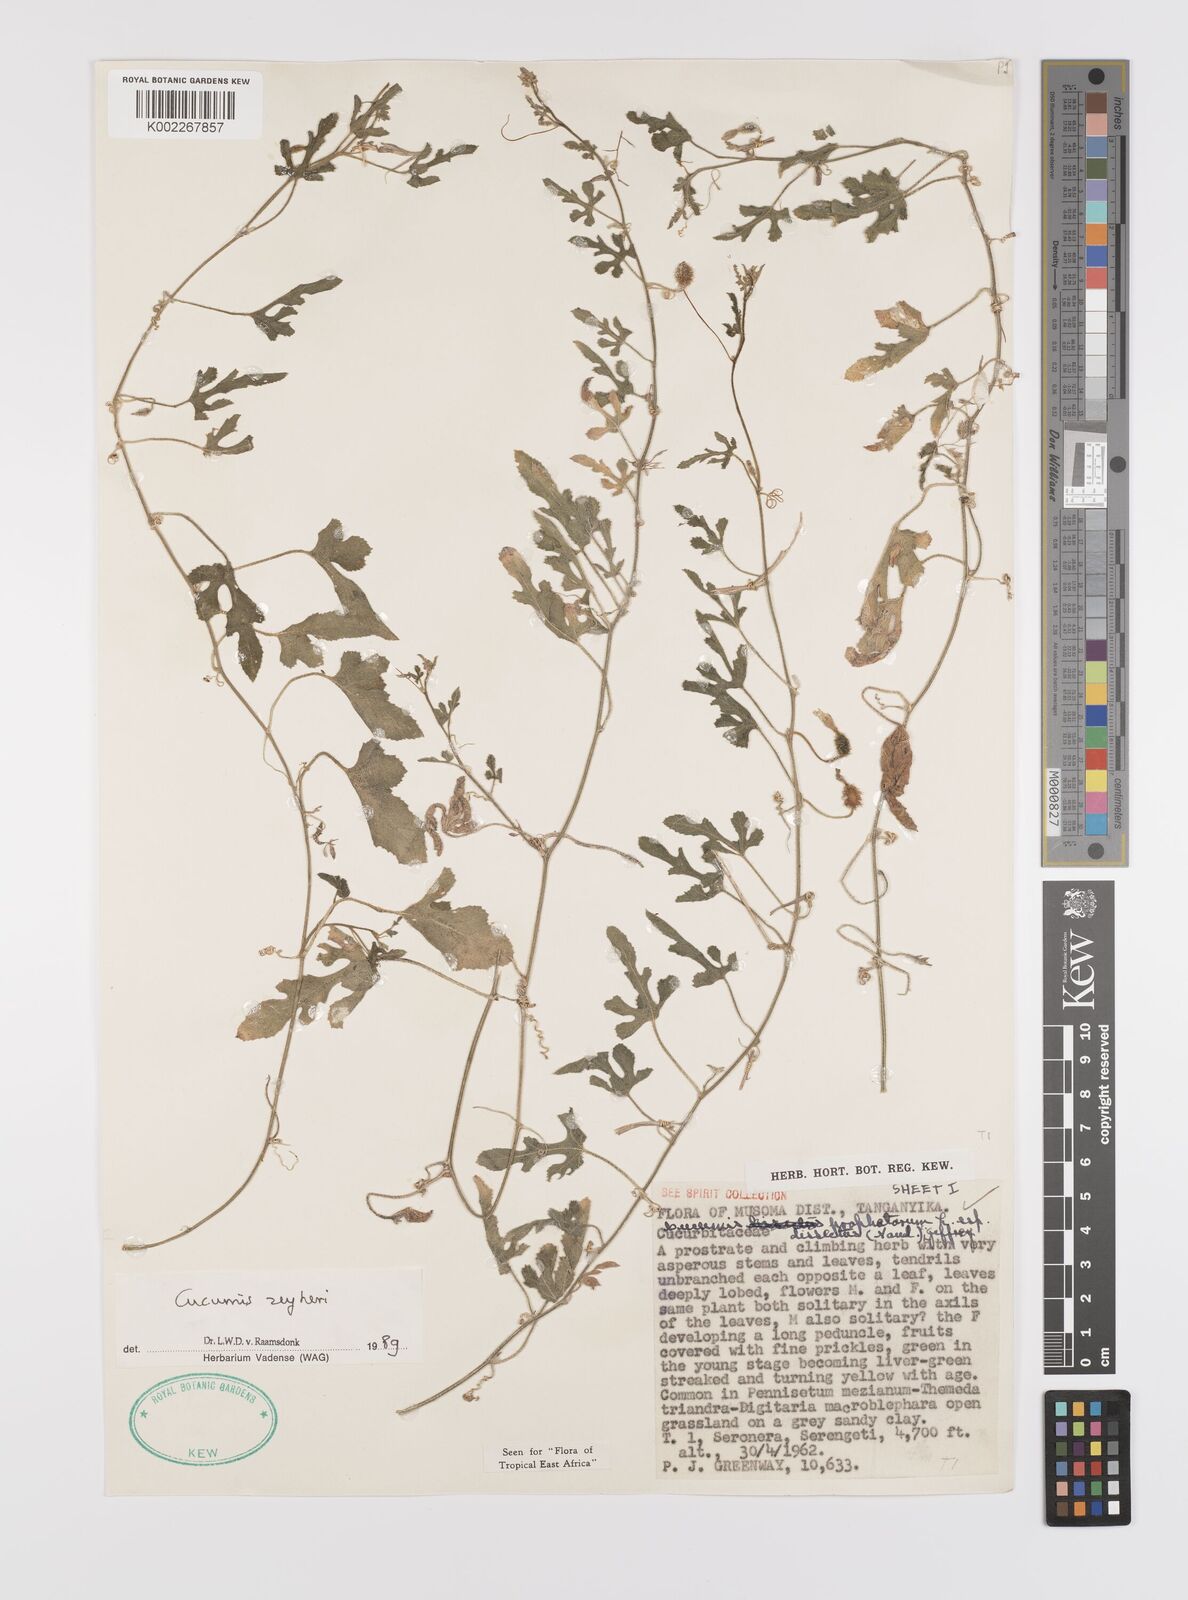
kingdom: Plantae
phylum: Tracheophyta
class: Magnoliopsida
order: Cucurbitales
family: Cucurbitaceae
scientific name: Cucurbitaceae
